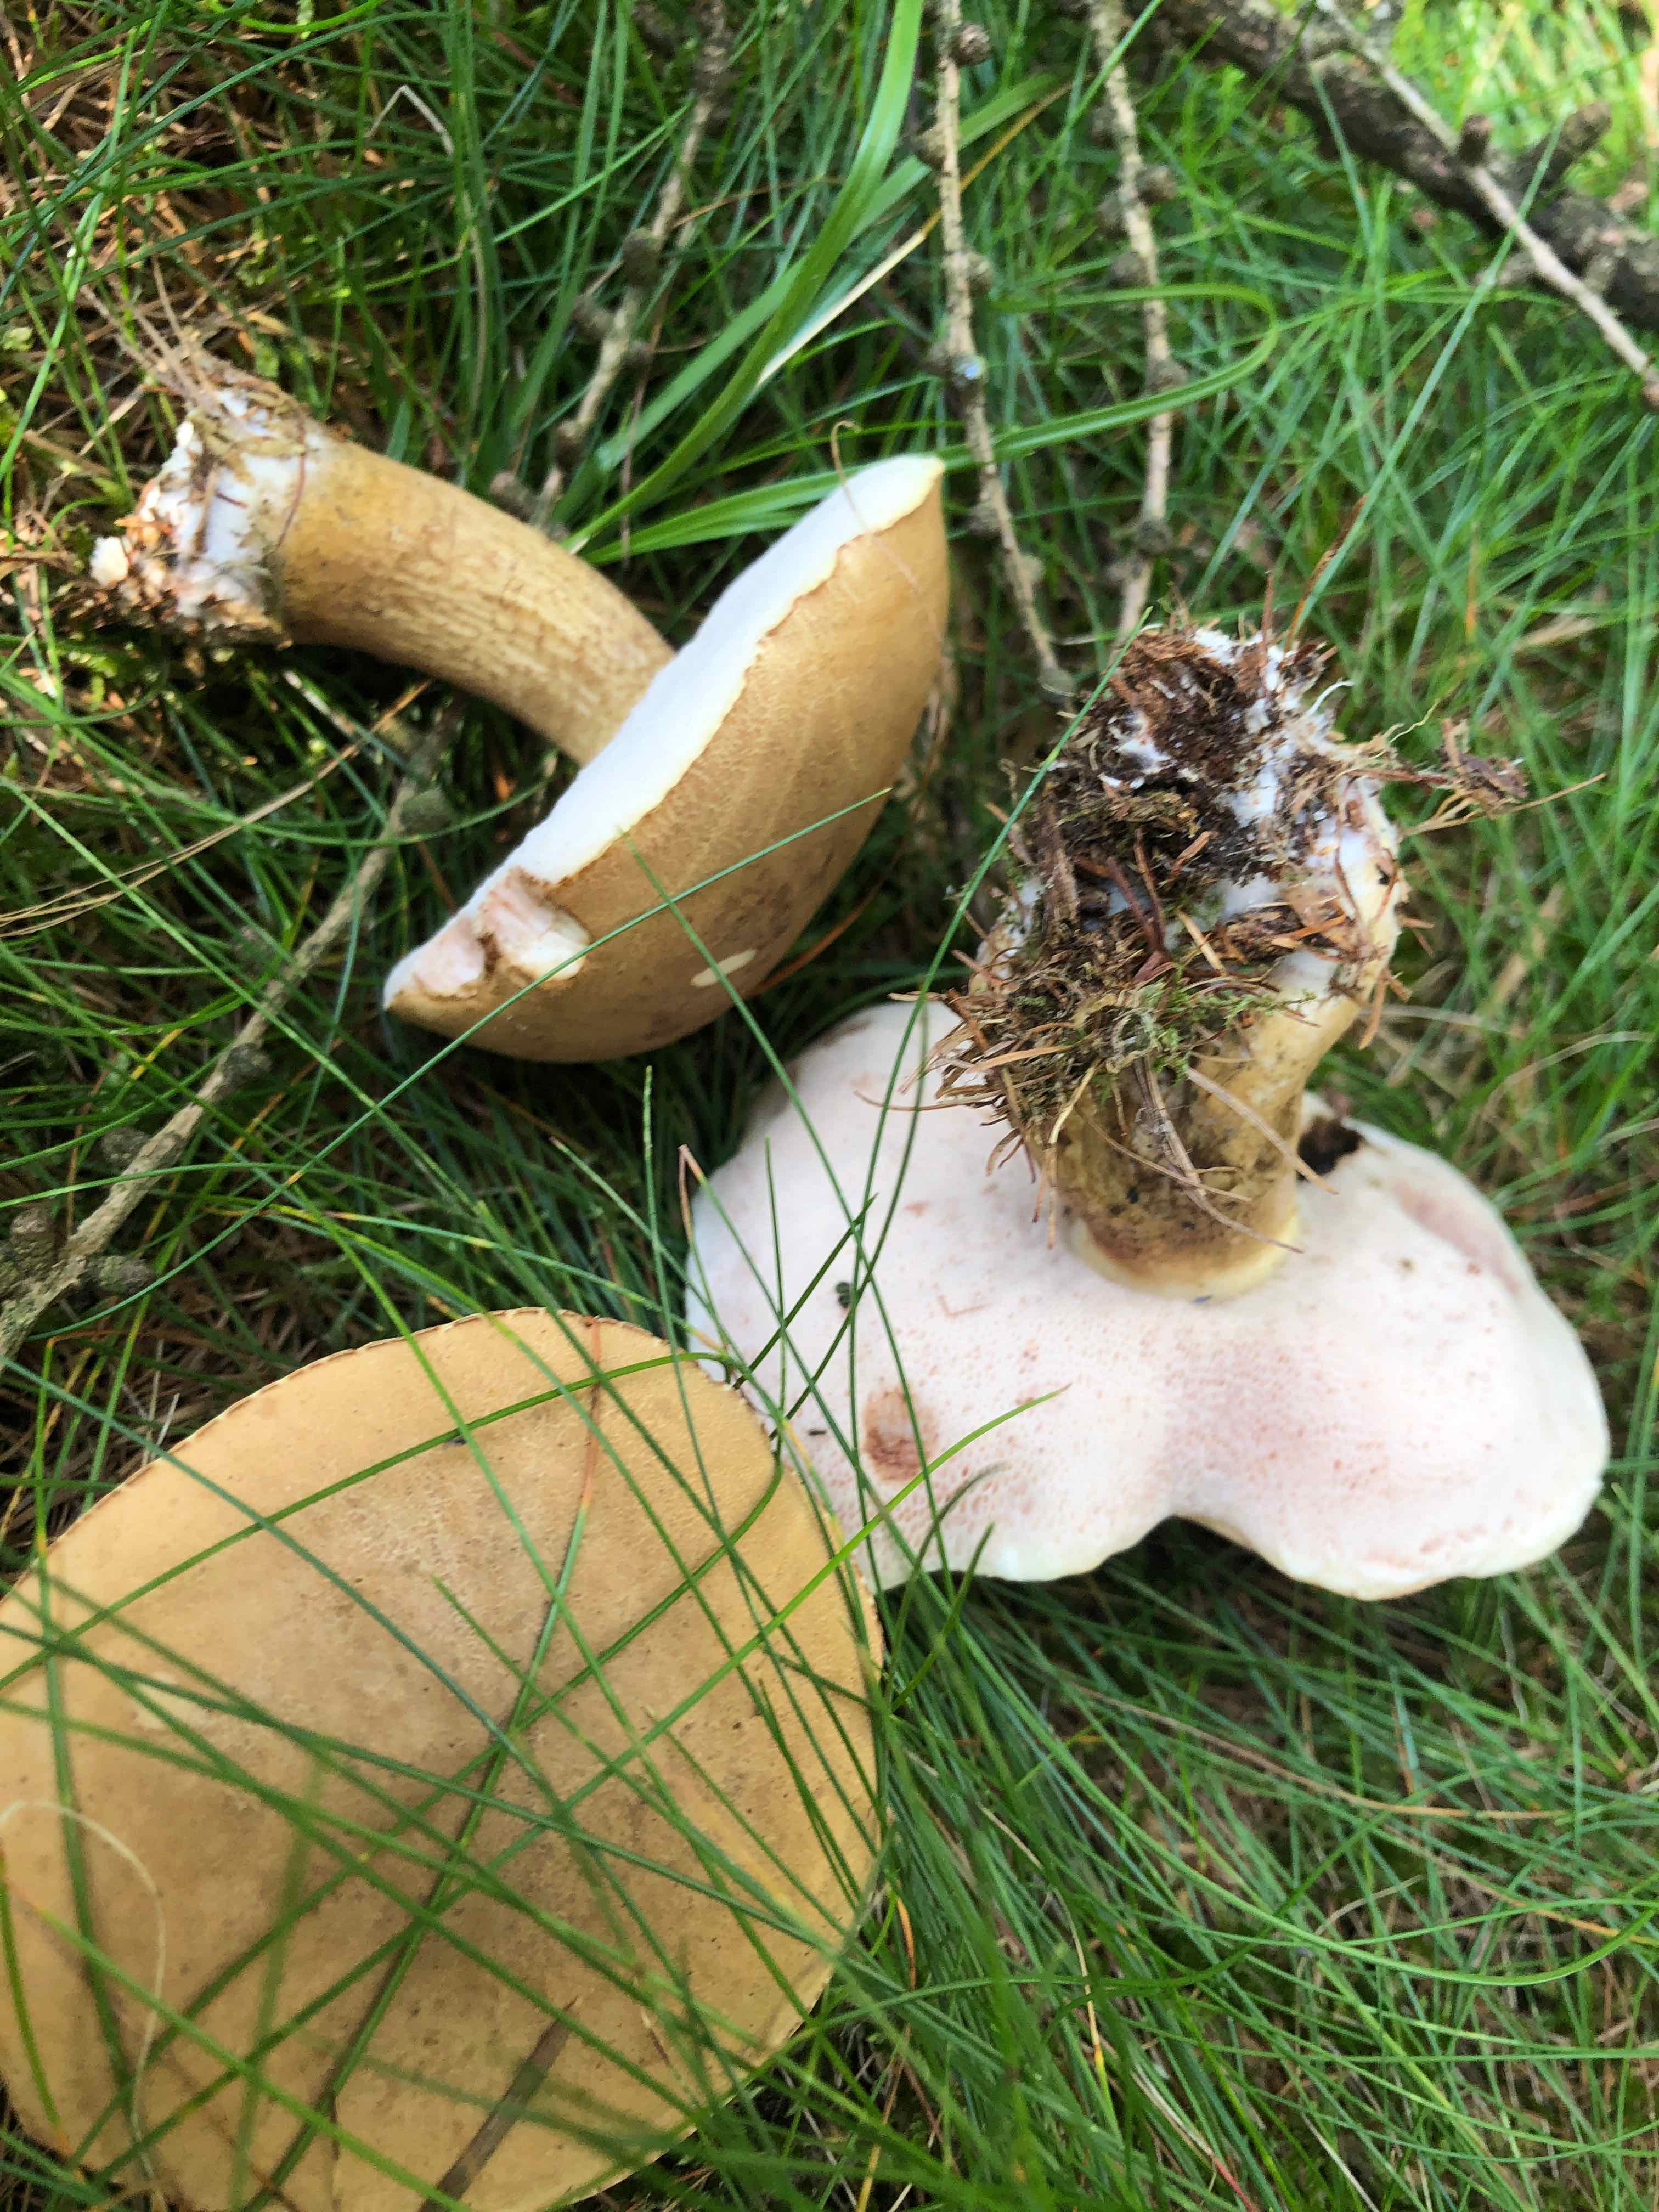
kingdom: Fungi
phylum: Basidiomycota
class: Agaricomycetes
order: Boletales
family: Boletaceae
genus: Tylopilus
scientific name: Tylopilus felleus
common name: galderørhat
